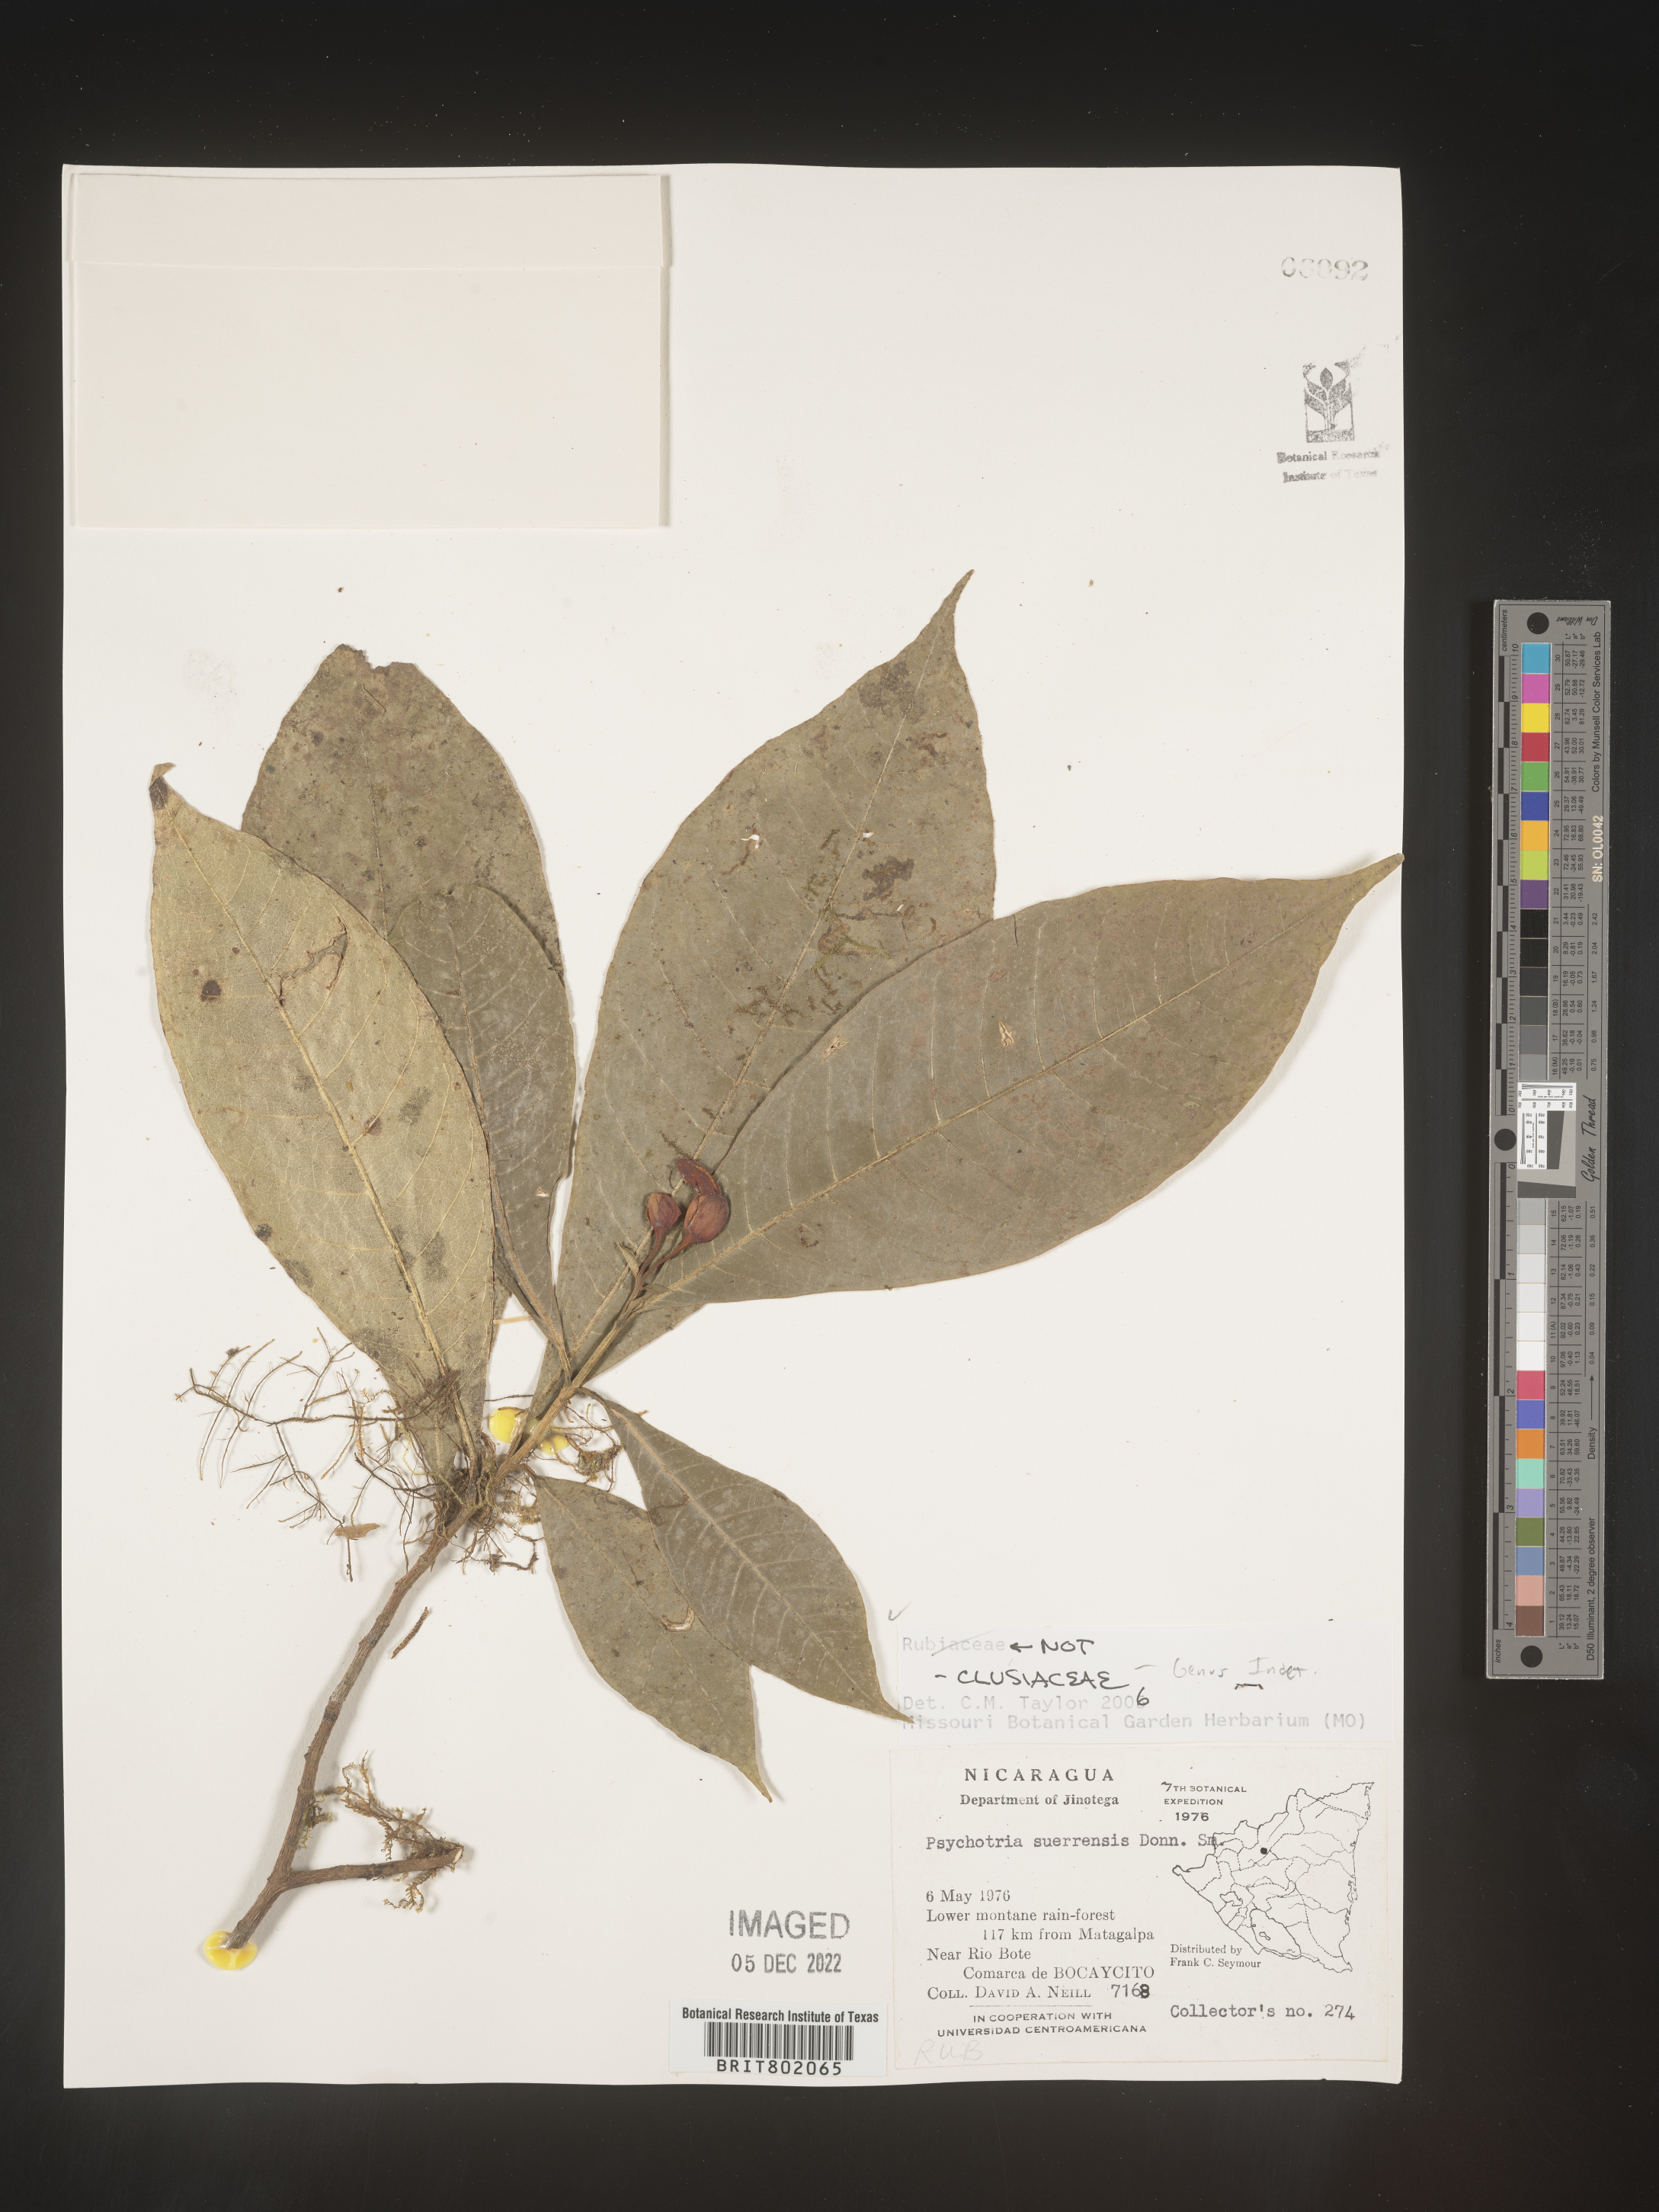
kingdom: Plantae
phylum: Tracheophyta
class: Magnoliopsida
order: Malpighiales
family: Clusiaceae
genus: Clusia
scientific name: Clusia
